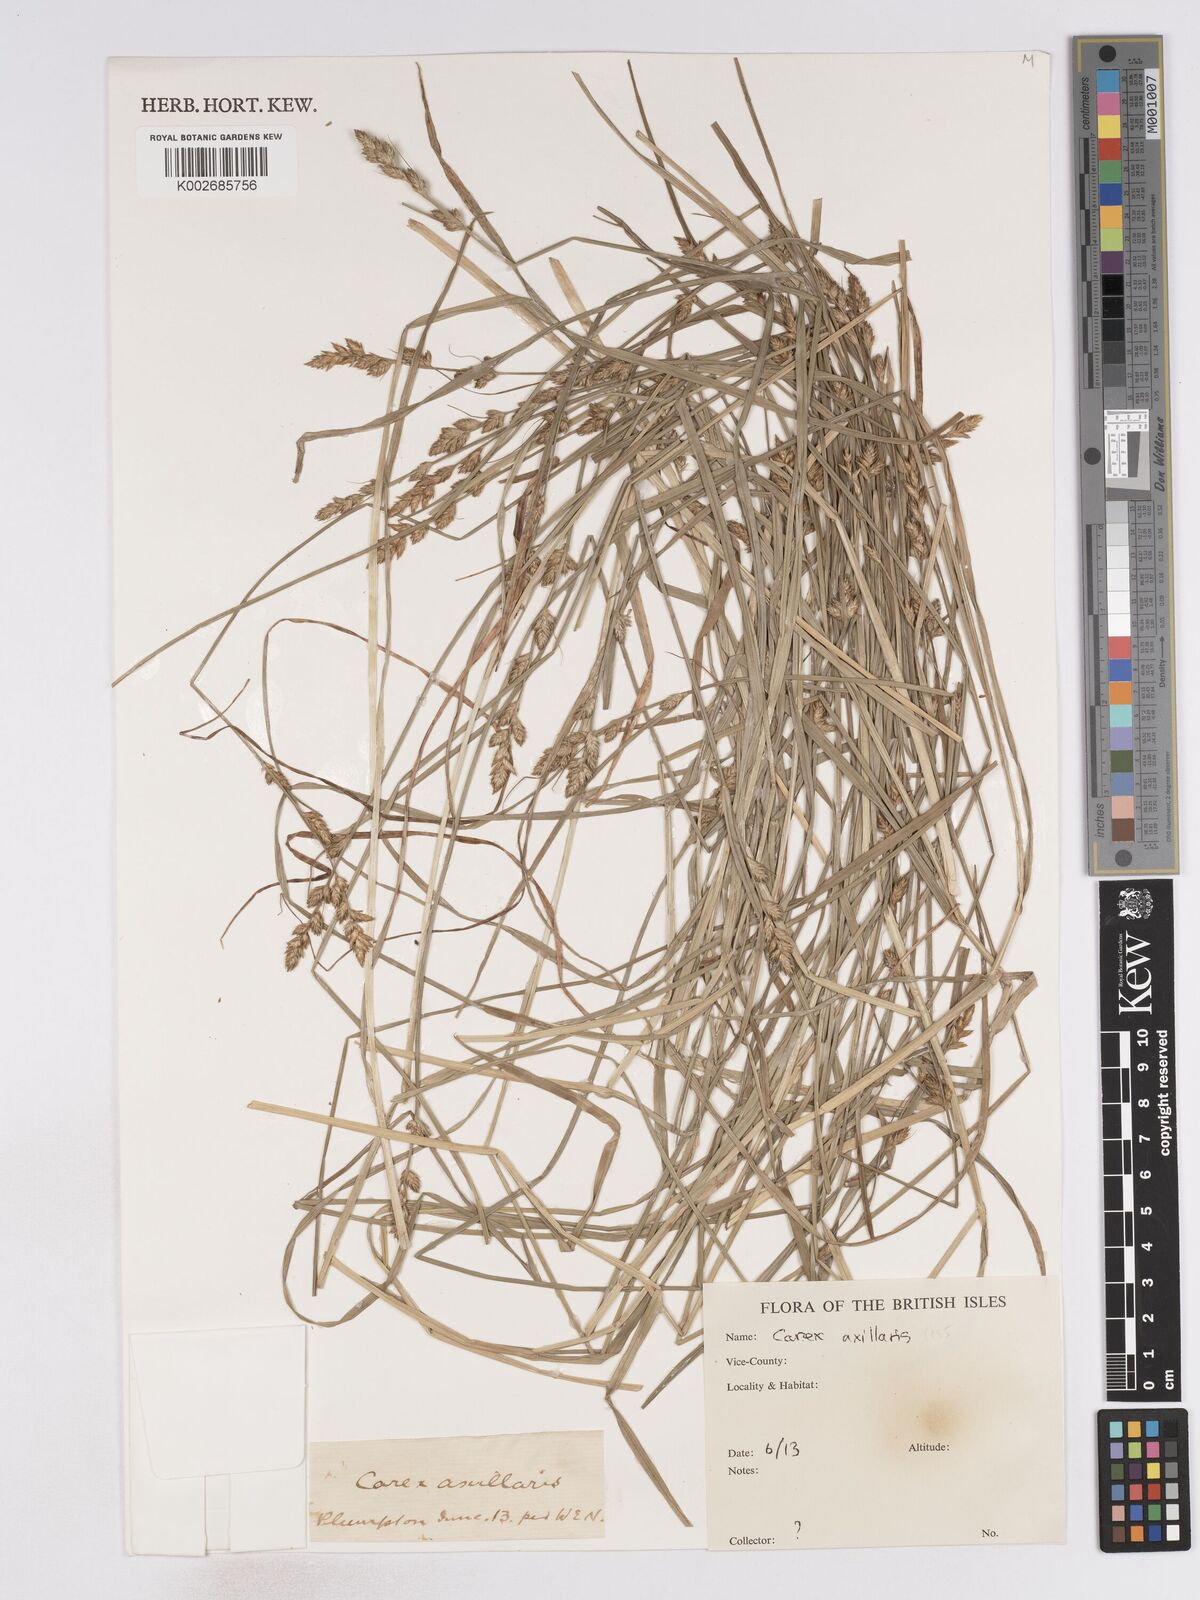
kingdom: Plantae
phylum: Tracheophyta
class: Liliopsida
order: Poales
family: Cyperaceae
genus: Carex
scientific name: Carex remota
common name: Remote sedge
